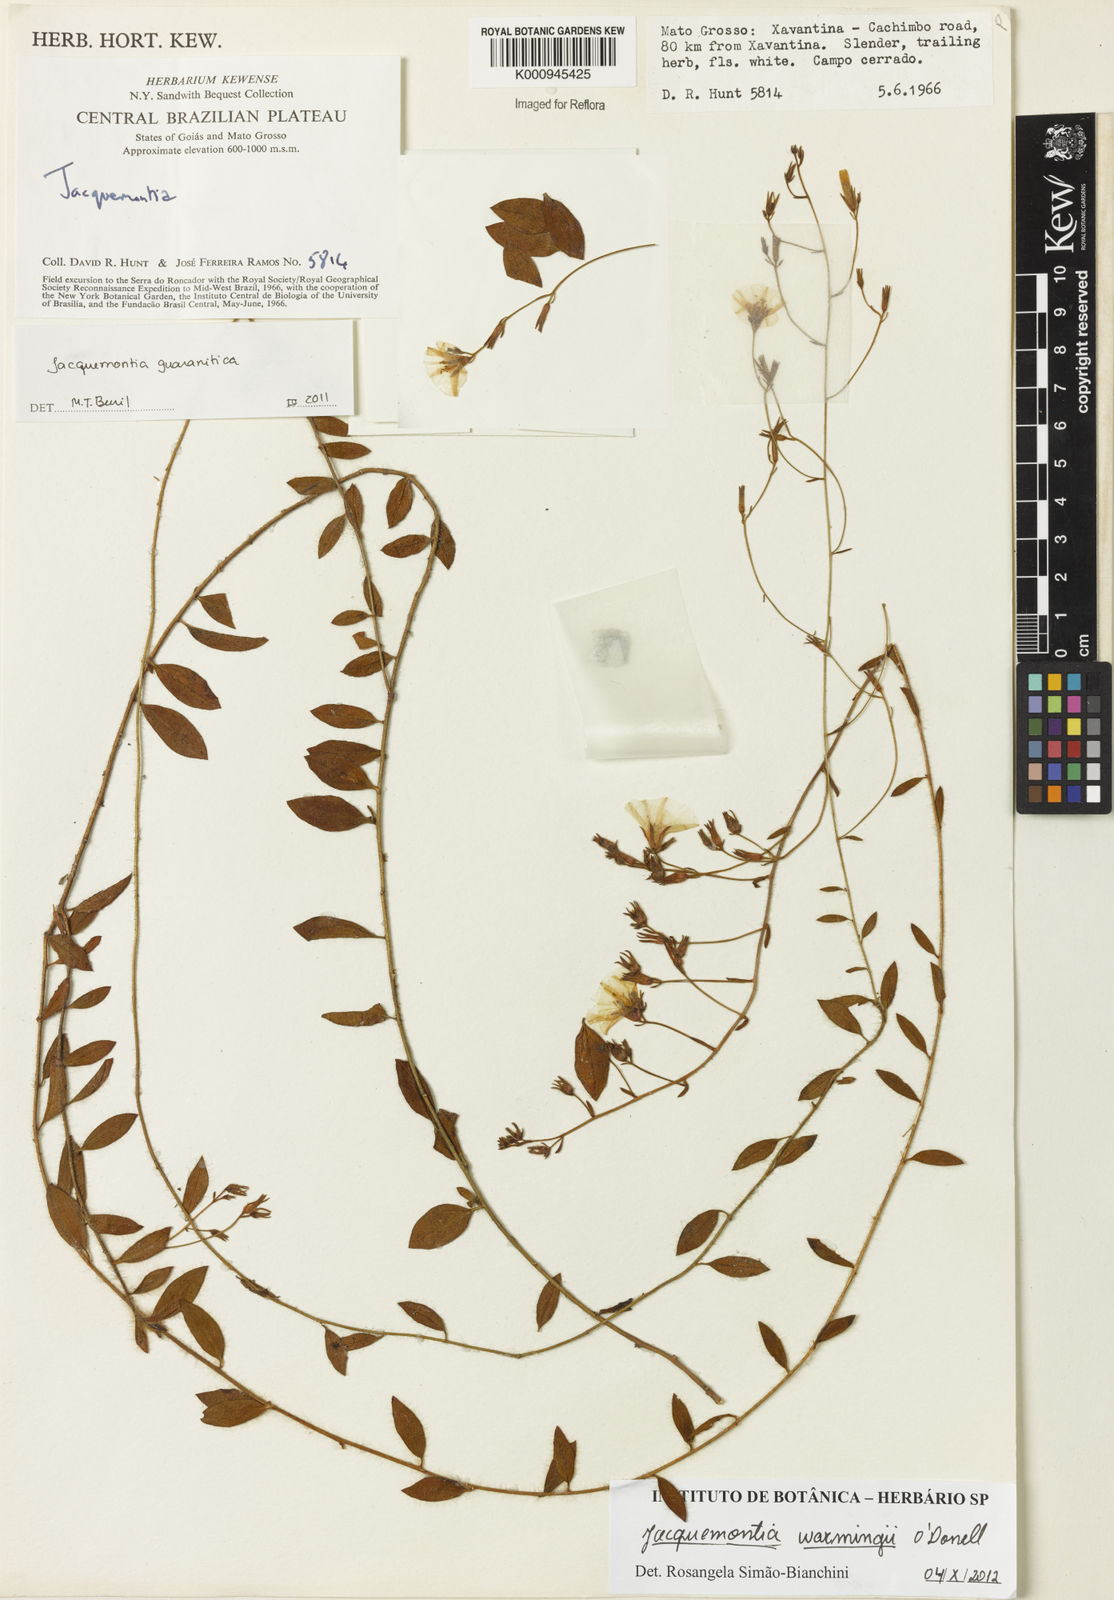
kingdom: Plantae
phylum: Tracheophyta
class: Magnoliopsida
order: Solanales
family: Convolvulaceae
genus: Jacquemontia
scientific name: Jacquemontia
